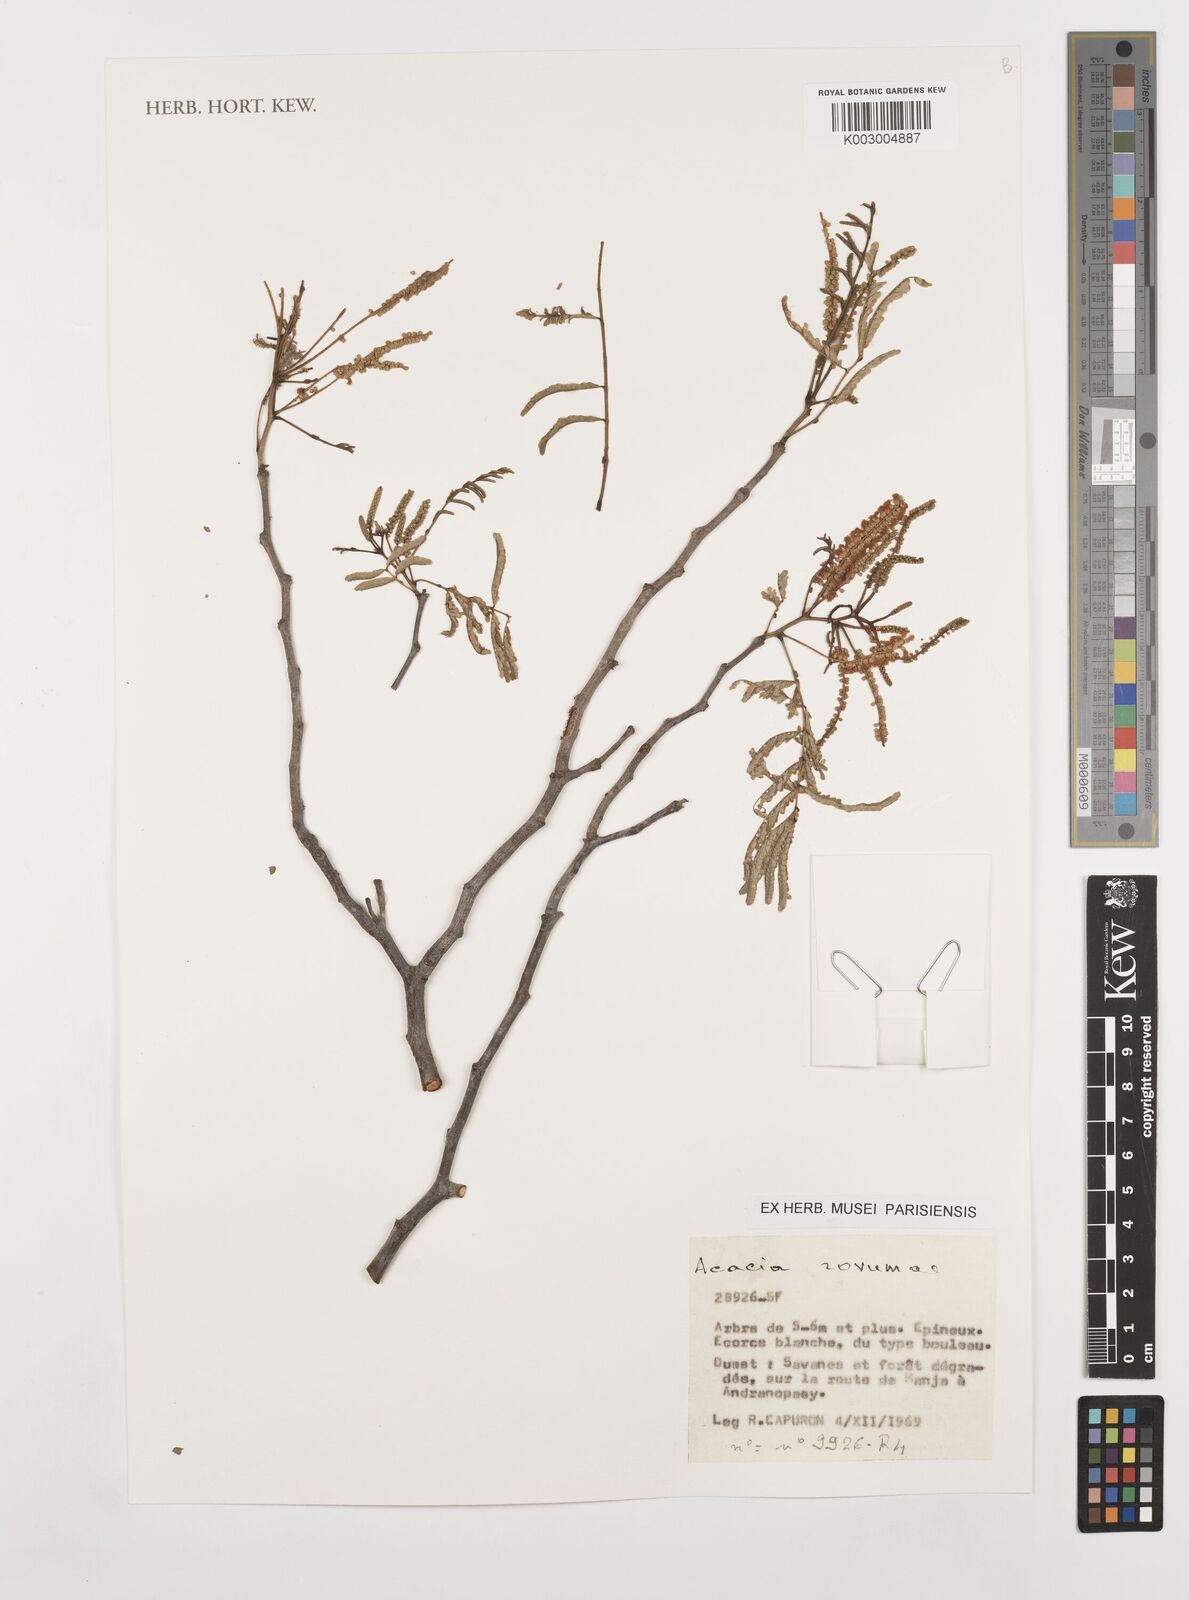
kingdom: Plantae
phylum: Tracheophyta
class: Magnoliopsida
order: Fabales
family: Fabaceae
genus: Senegalia
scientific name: Senegalia rovumae
